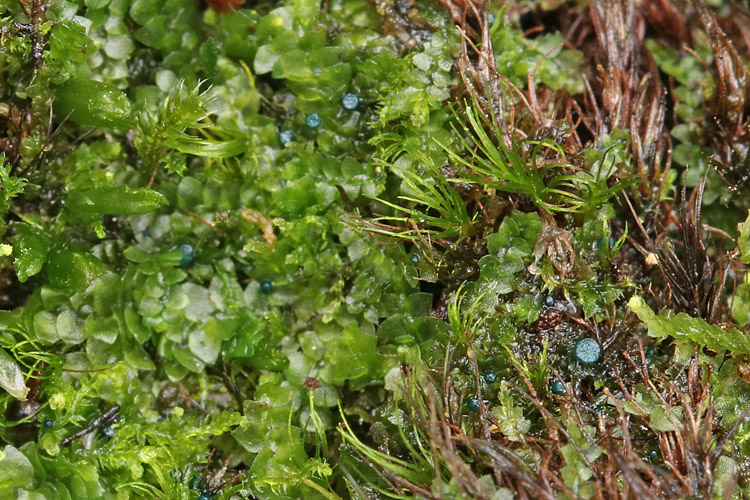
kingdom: Fungi
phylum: Ascomycota
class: Leotiomycetes
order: Leotiales
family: Mniaeciaceae
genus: Mniaecia
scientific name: Mniaecia jungermanniae
